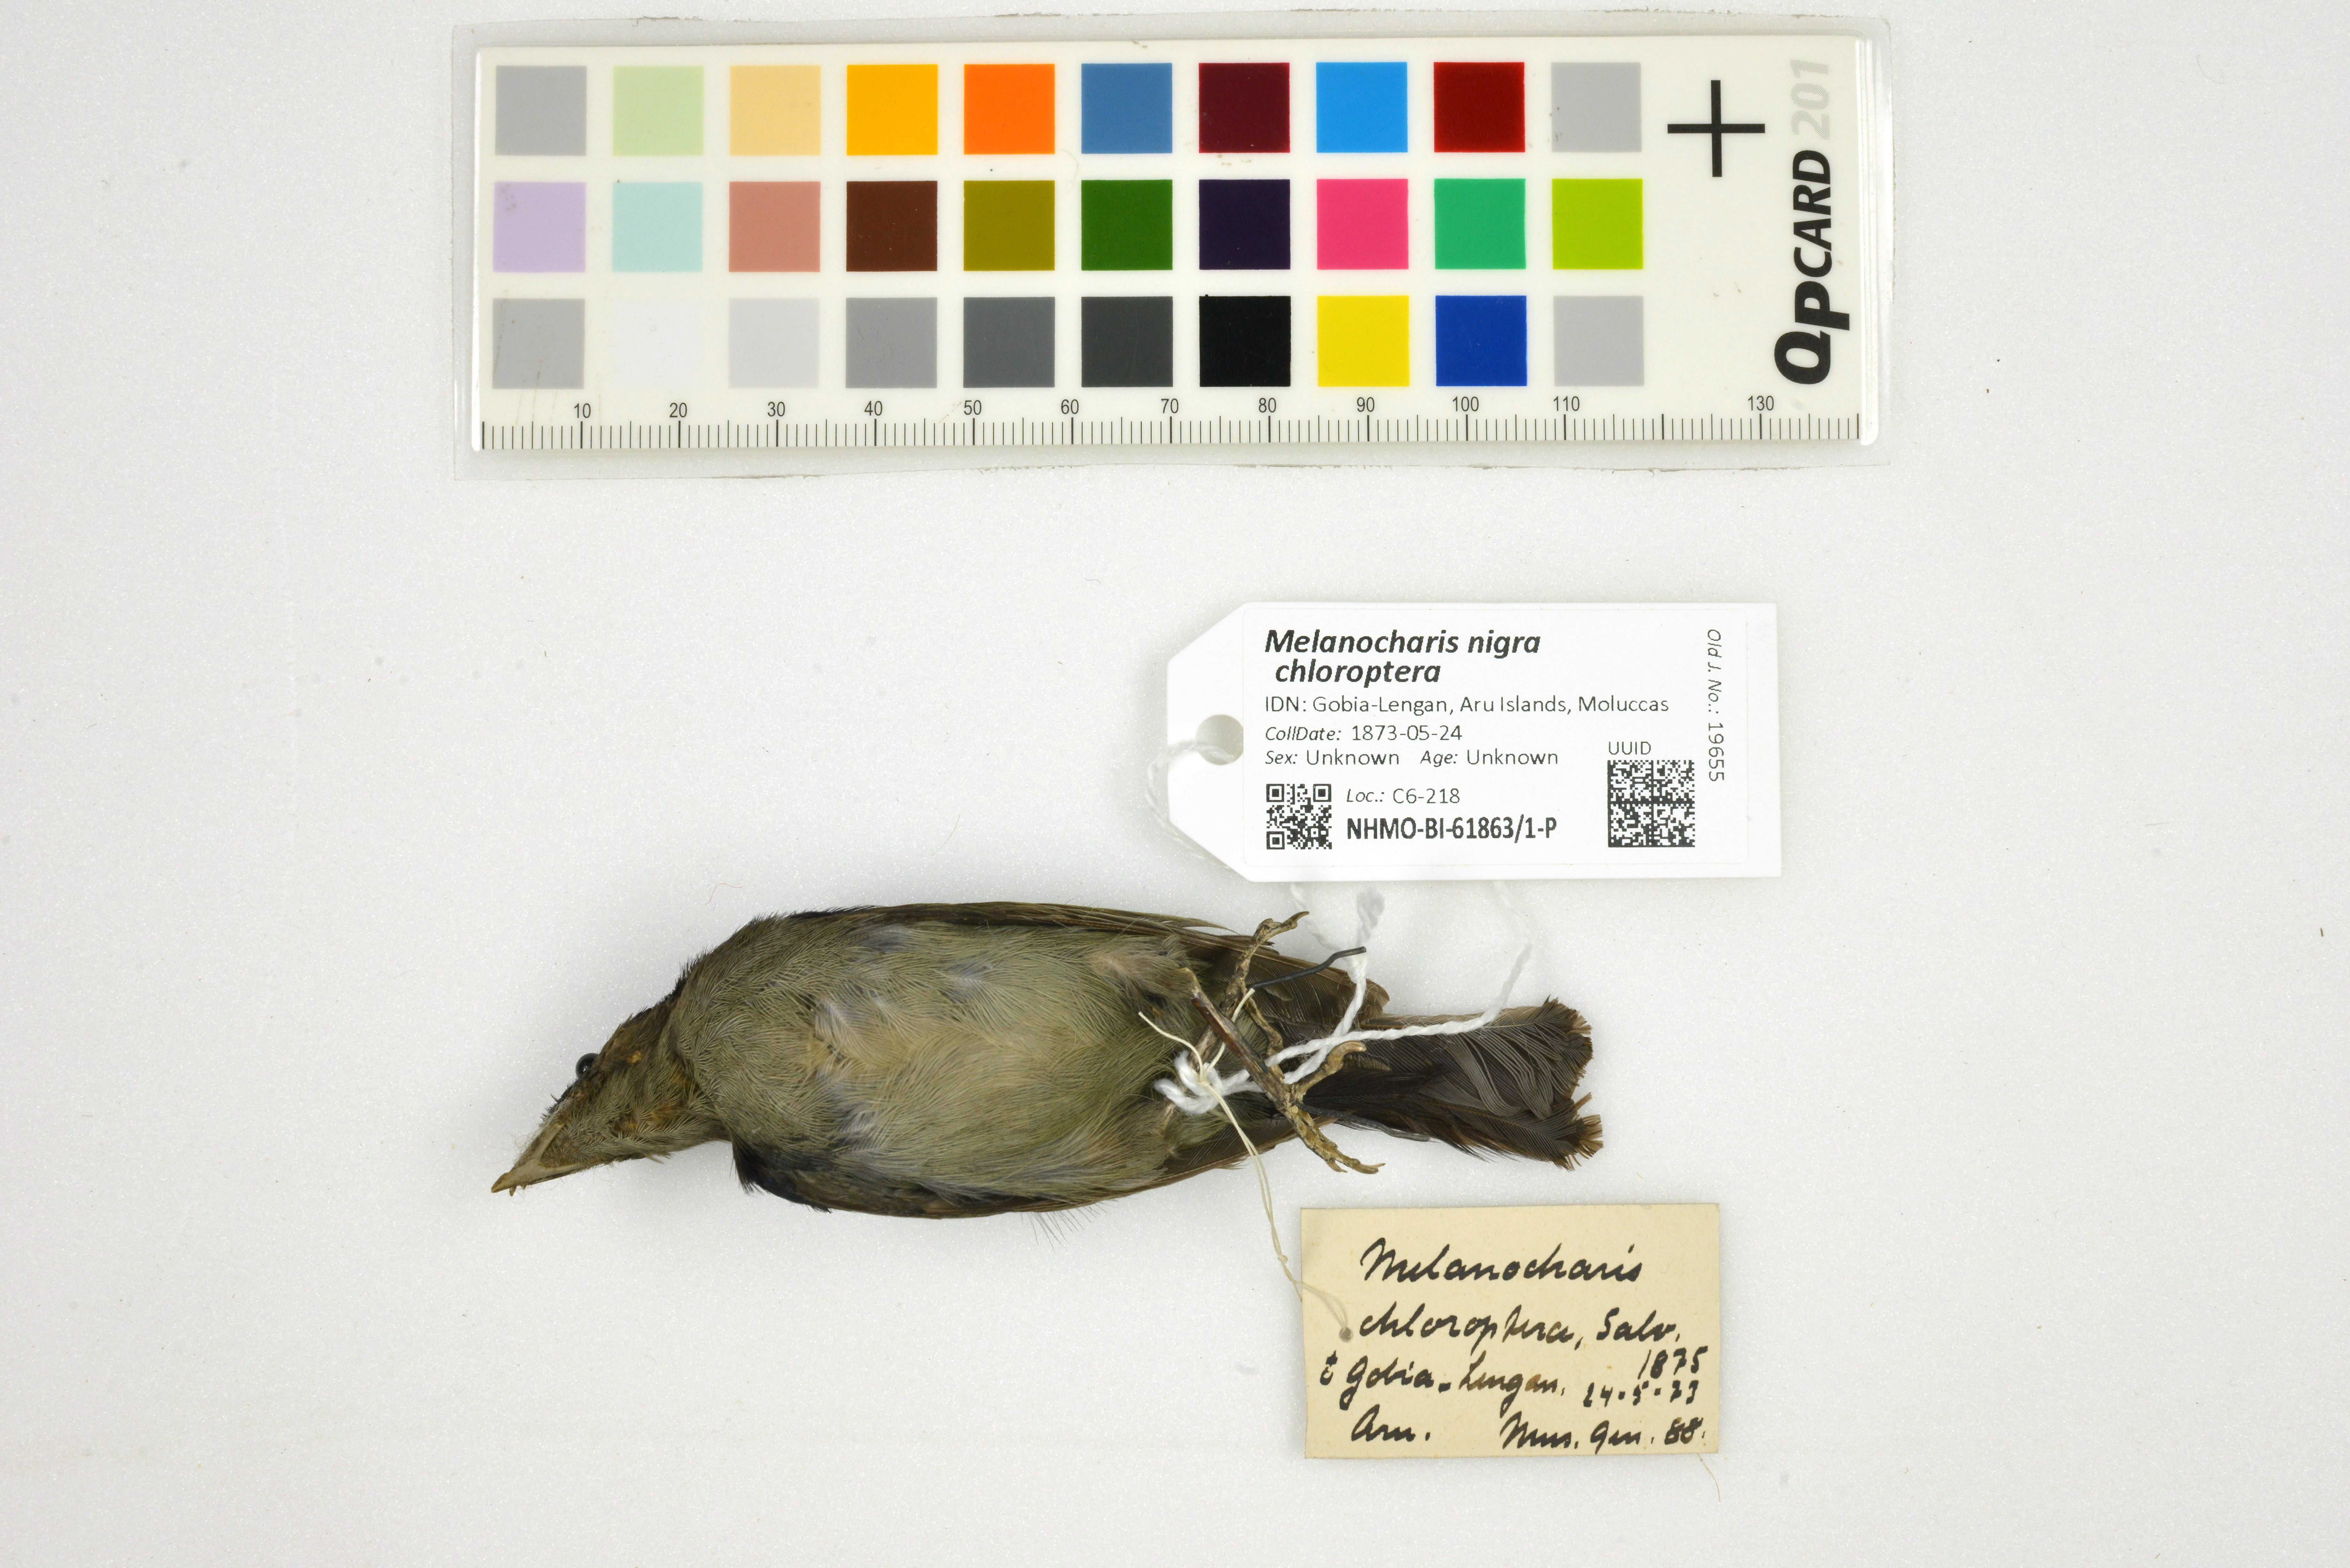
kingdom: Animalia
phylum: Chordata
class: Aves
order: Passeriformes
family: Melanocharitidae
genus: Melanocharis
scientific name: Melanocharis nigra
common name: Black berrypecker
